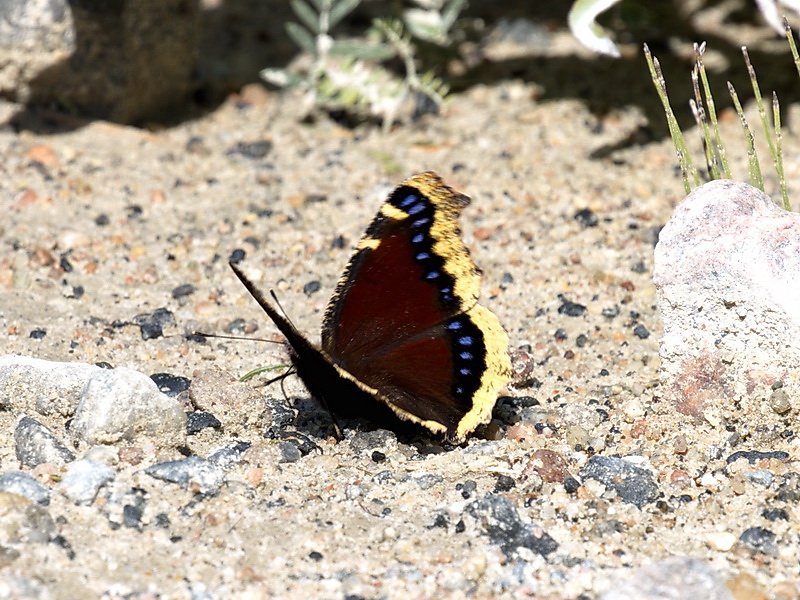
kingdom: Animalia
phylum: Arthropoda
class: Insecta
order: Lepidoptera
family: Nymphalidae
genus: Nymphalis
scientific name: Nymphalis antiopa
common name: Mourning Cloak
